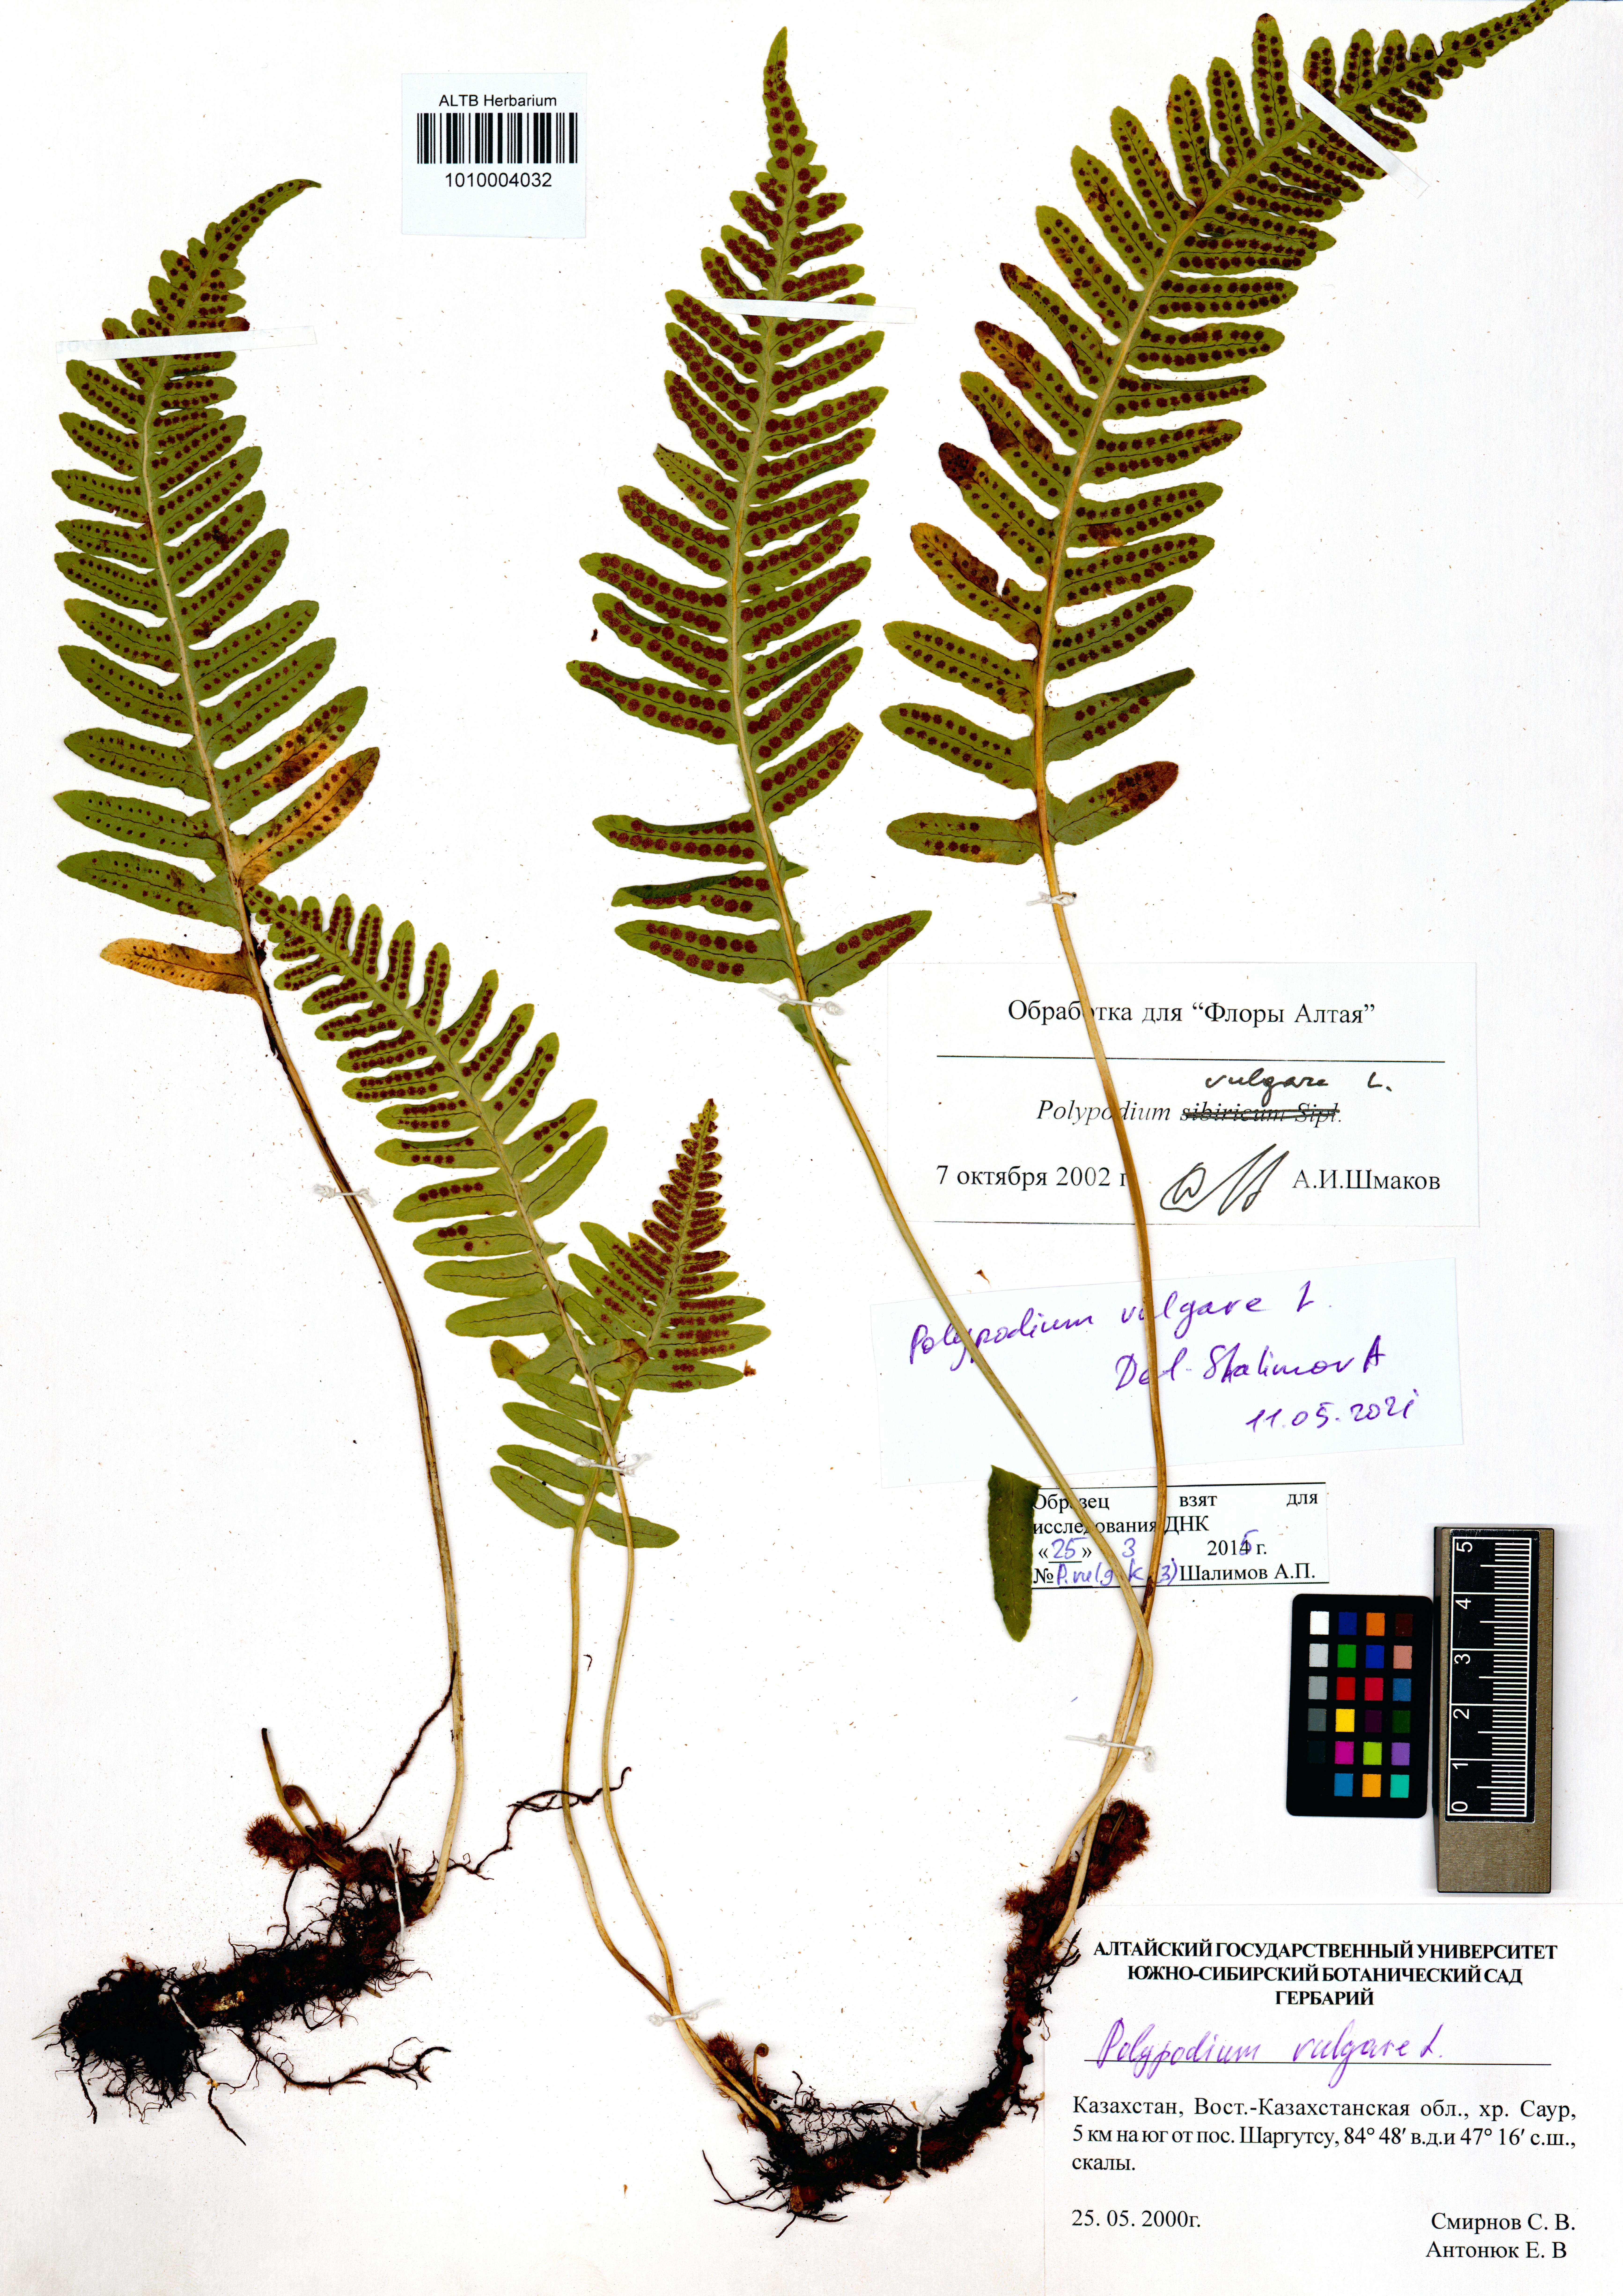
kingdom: Plantae
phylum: Tracheophyta
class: Polypodiopsida
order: Polypodiales
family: Polypodiaceae
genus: Polypodium
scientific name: Polypodium vulgare
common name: Common polypody
